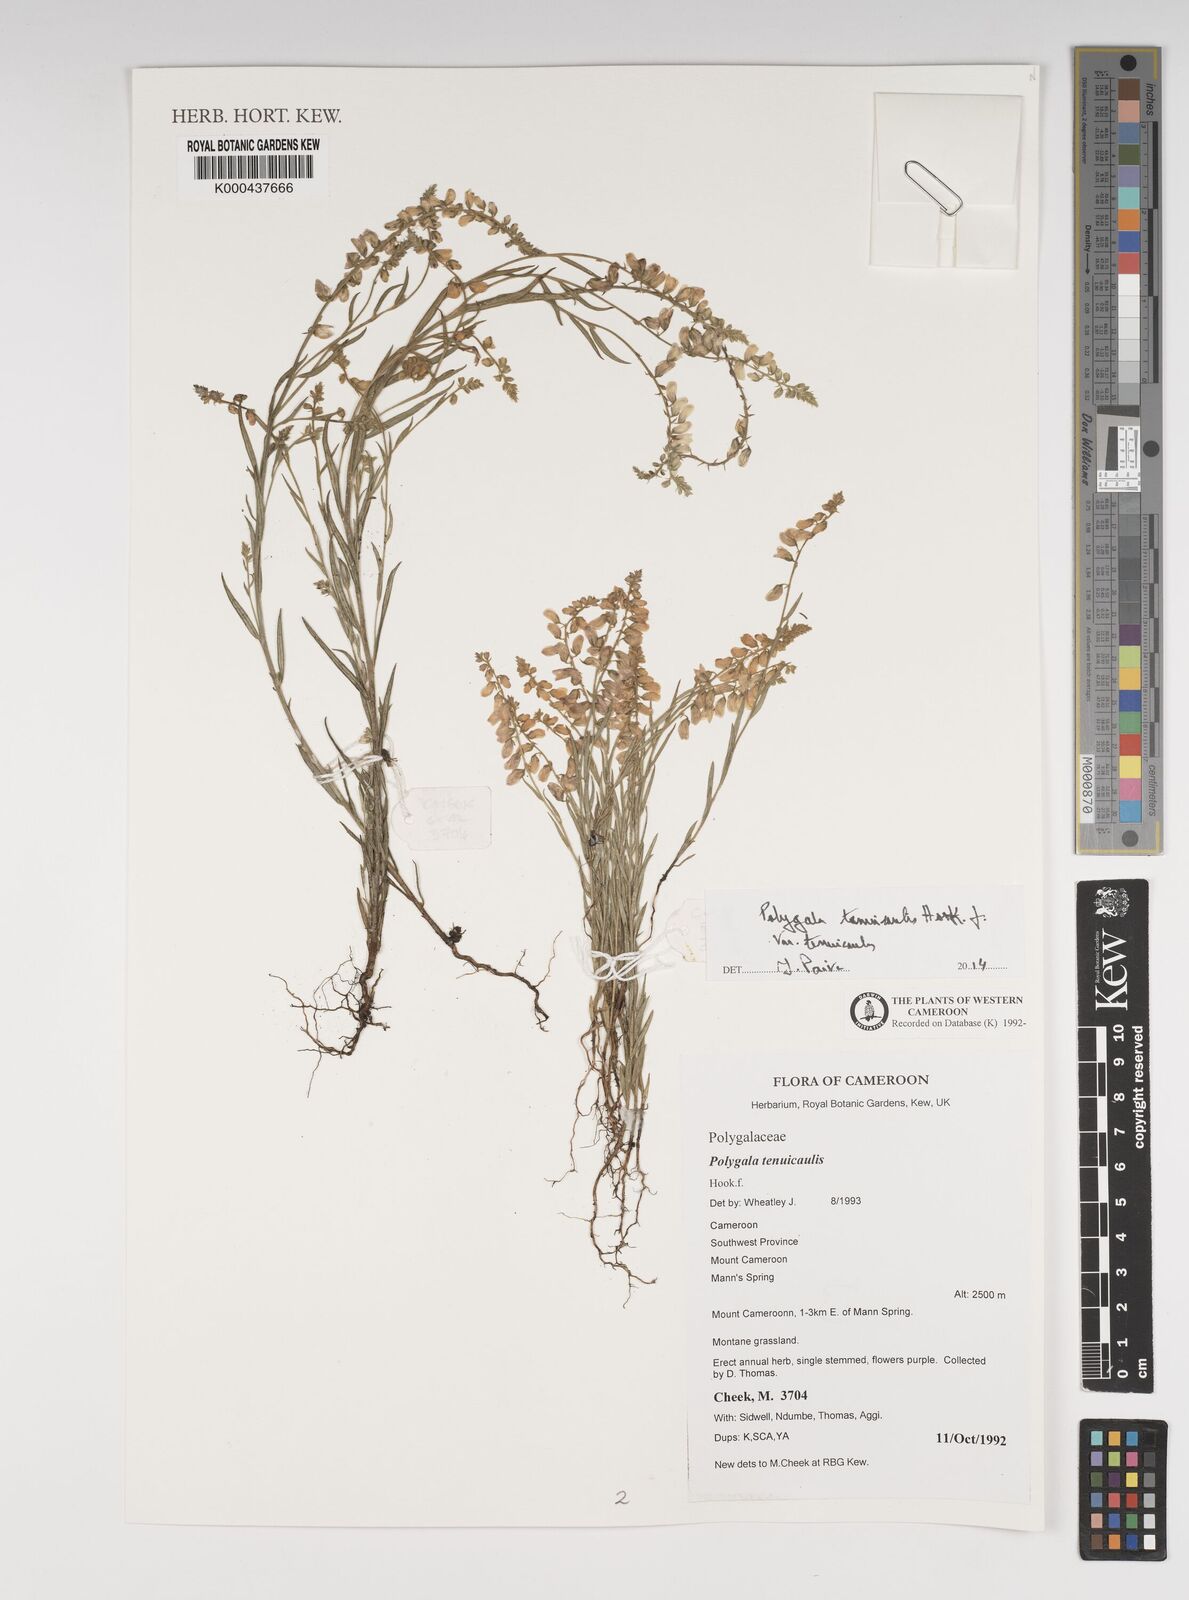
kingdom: Plantae
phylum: Tracheophyta
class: Magnoliopsida
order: Fabales
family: Polygalaceae
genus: Polygala
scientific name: Polygala tenuicaulis
